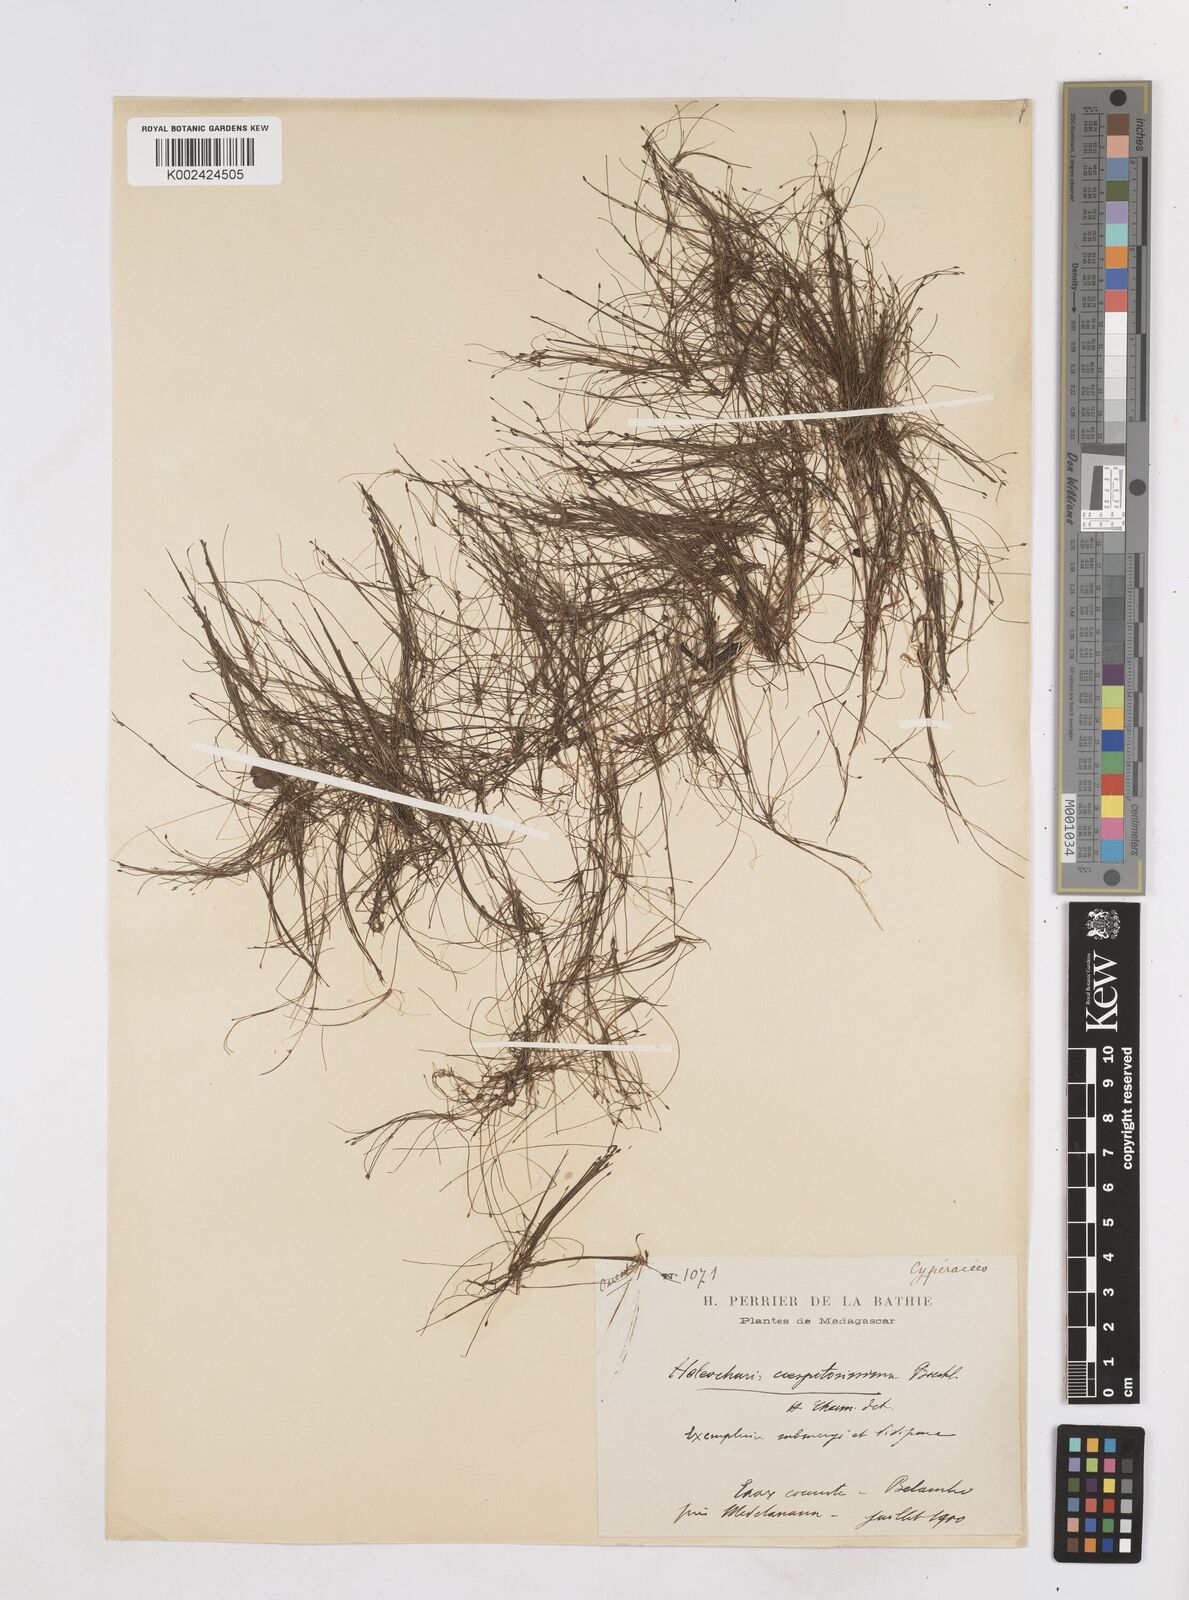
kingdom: Plantae
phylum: Tracheophyta
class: Liliopsida
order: Poales
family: Cyperaceae
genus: Eleocharis
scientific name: Eleocharis caespitosissima
